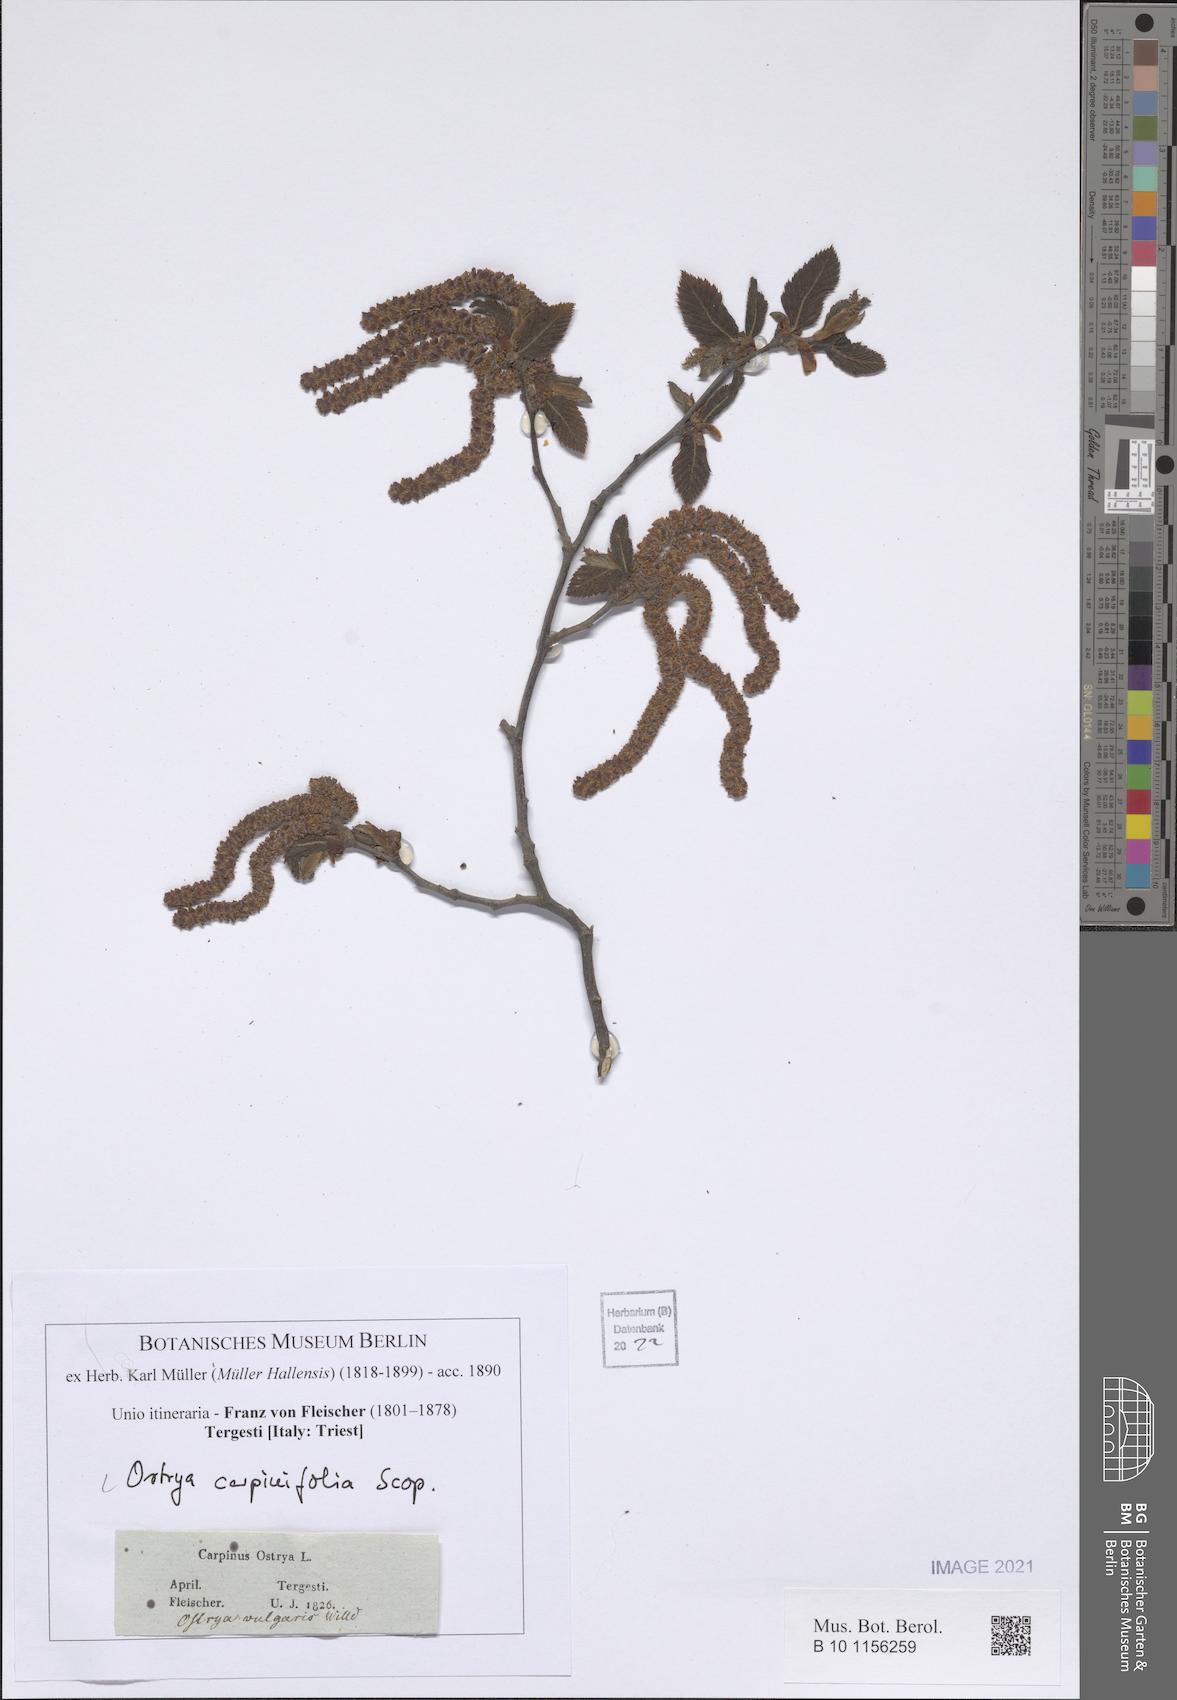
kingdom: Plantae
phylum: Tracheophyta
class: Magnoliopsida
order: Fagales
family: Betulaceae
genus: Ostrya
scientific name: Ostrya carpinifolia
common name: European hop-hornbeam
